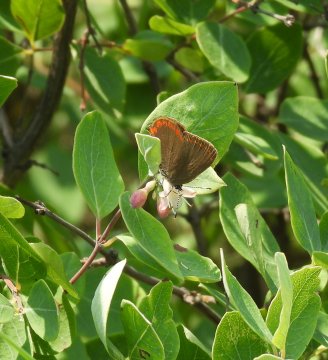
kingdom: Animalia
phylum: Arthropoda
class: Insecta
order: Lepidoptera
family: Lycaenidae
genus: Harkenclenus
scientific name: Harkenclenus titus
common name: Coral Hairstreak
